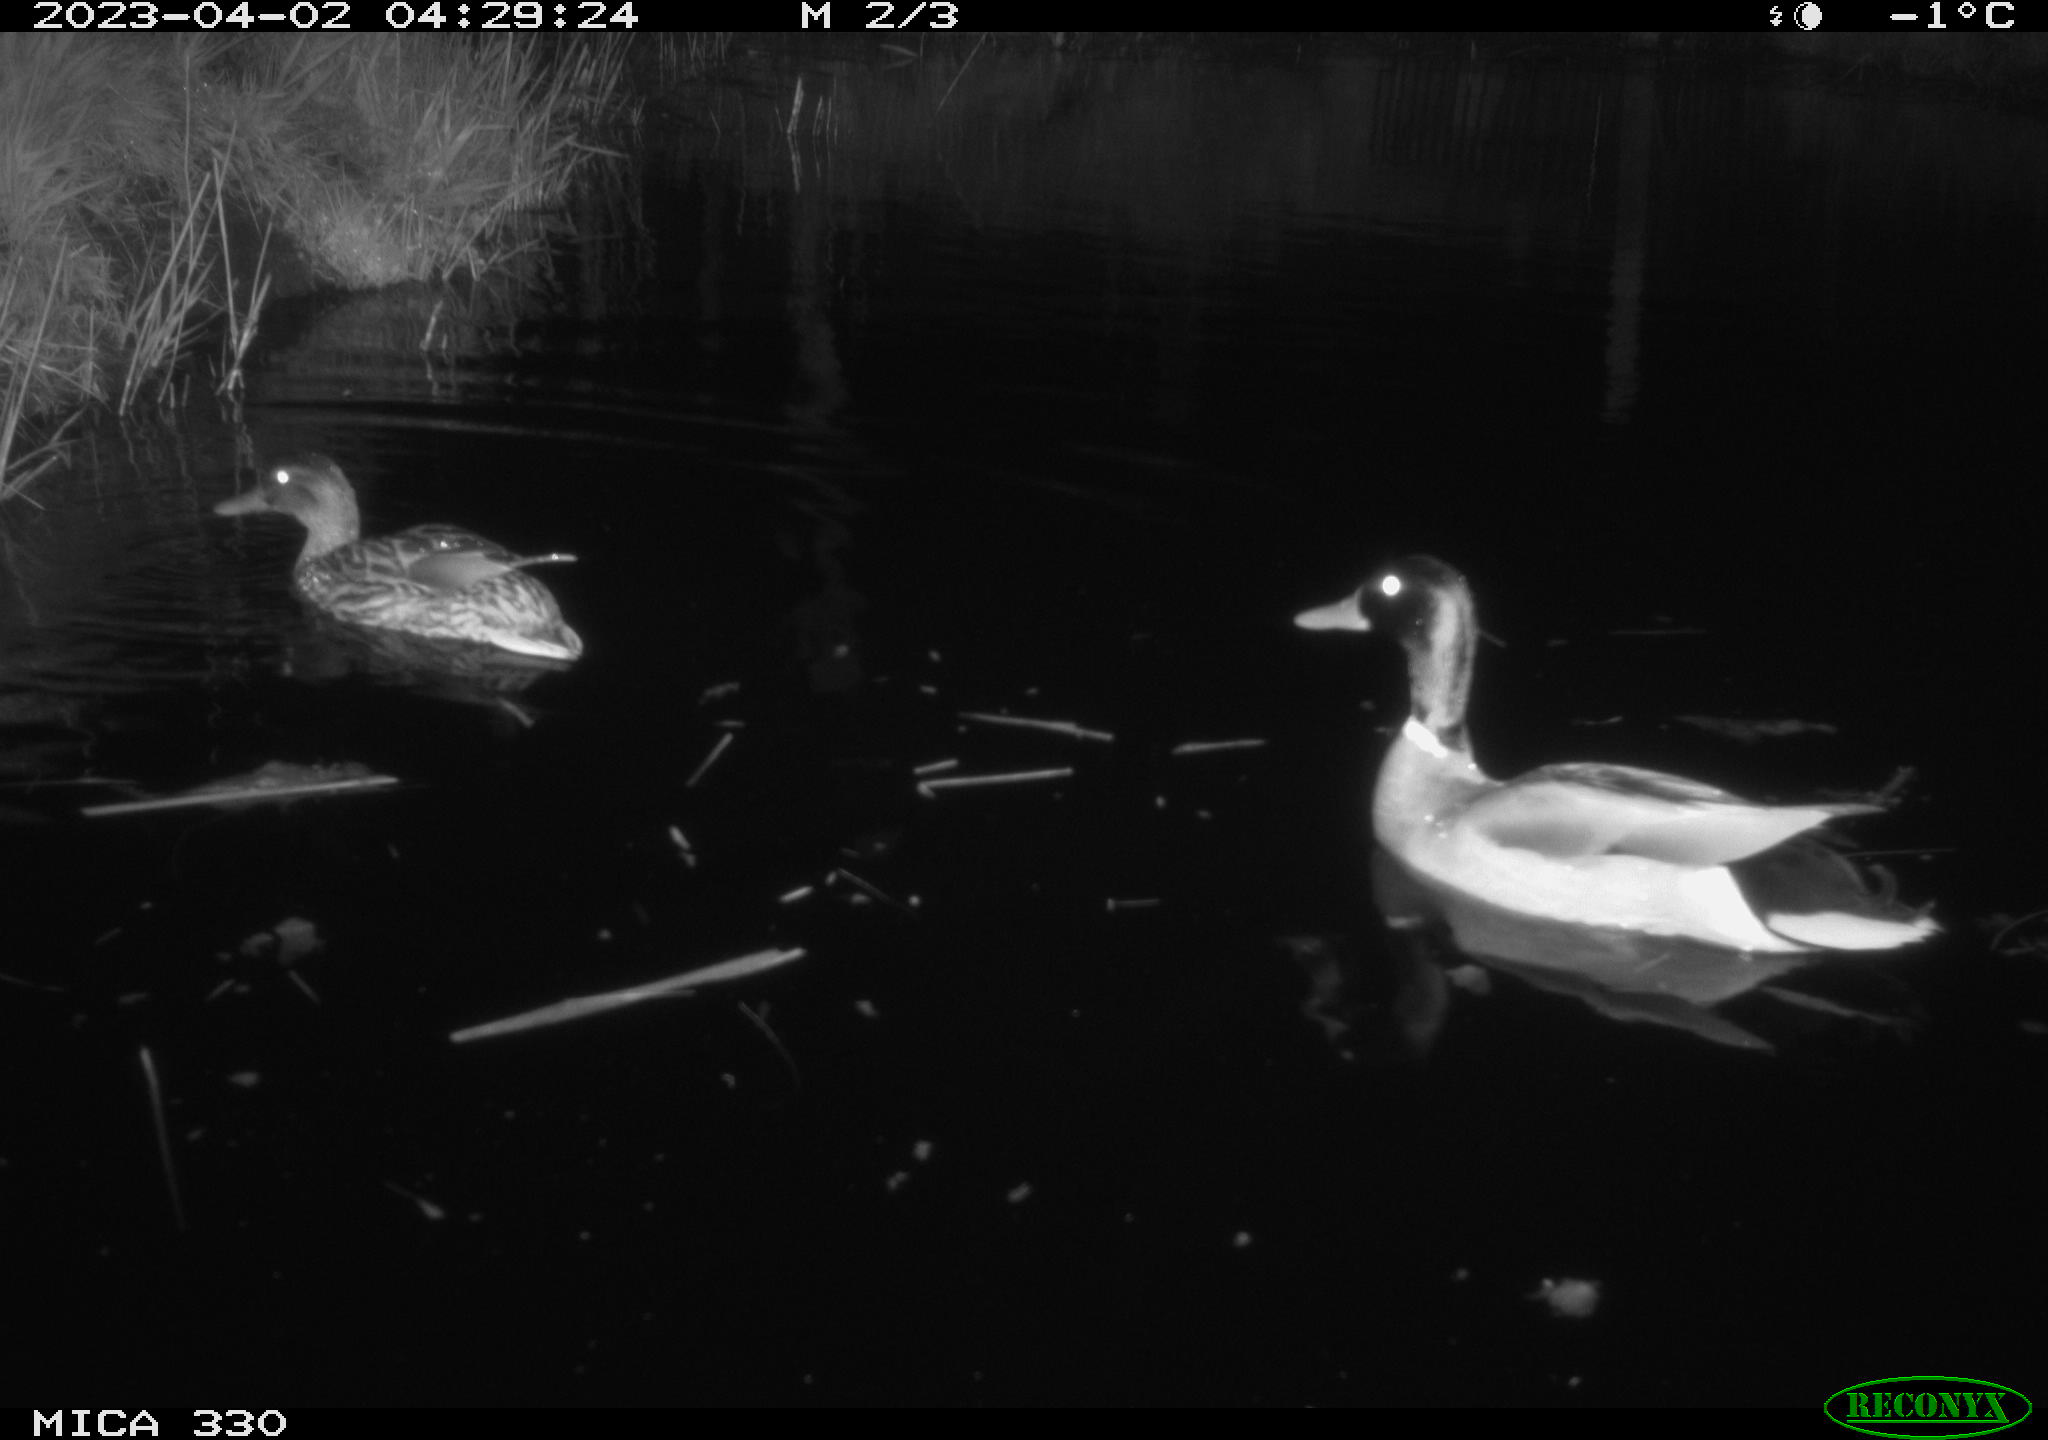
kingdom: Animalia
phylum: Chordata
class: Aves
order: Anseriformes
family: Anatidae
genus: Anas
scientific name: Anas
